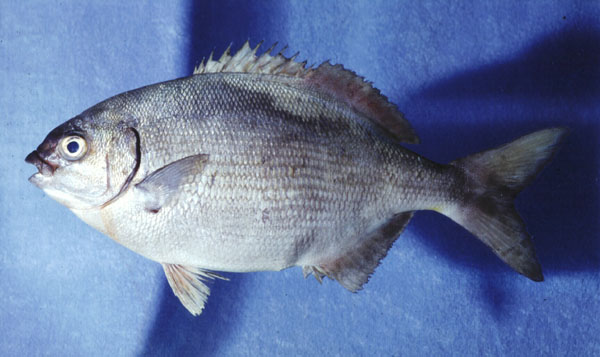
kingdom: Animalia
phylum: Chordata
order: Perciformes
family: Kyphosidae
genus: Kyphosus
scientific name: Kyphosus sectatrix
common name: Bermuda chub
